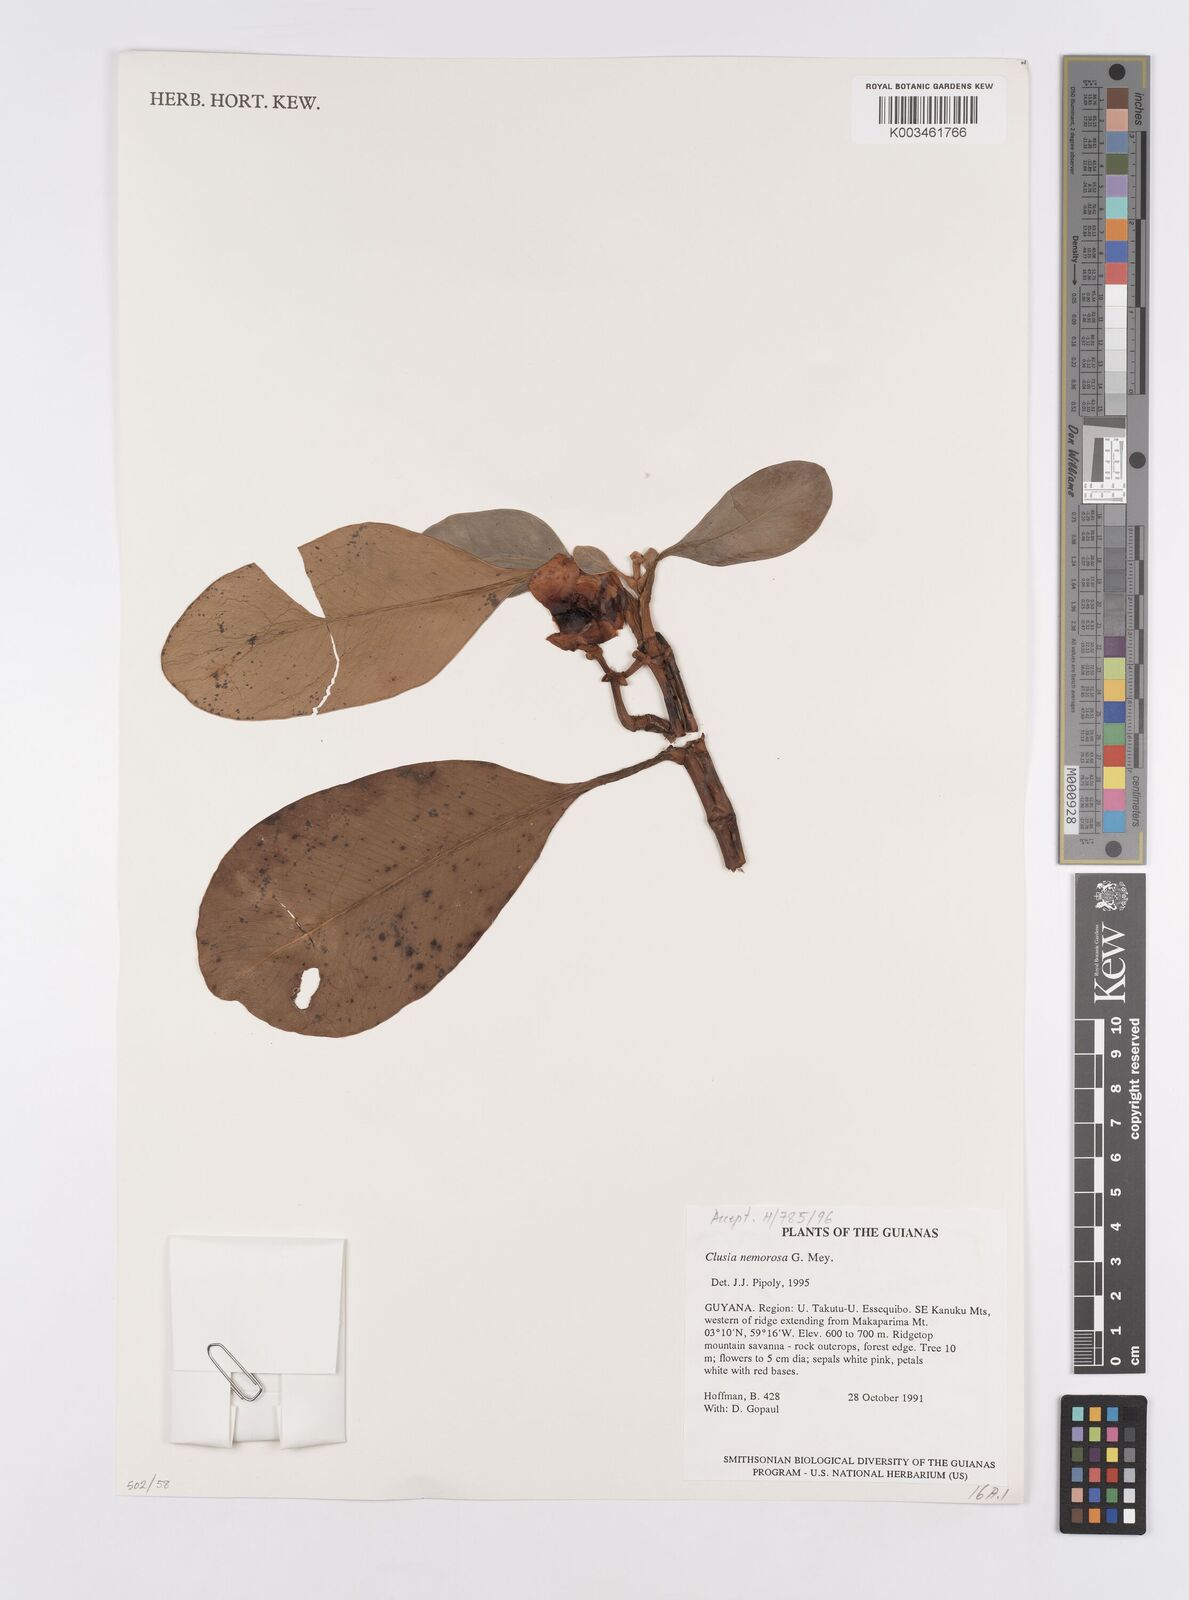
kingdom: Plantae
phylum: Tracheophyta
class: Magnoliopsida
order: Malpighiales
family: Clusiaceae
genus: Clusia
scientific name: Clusia nemorosa
